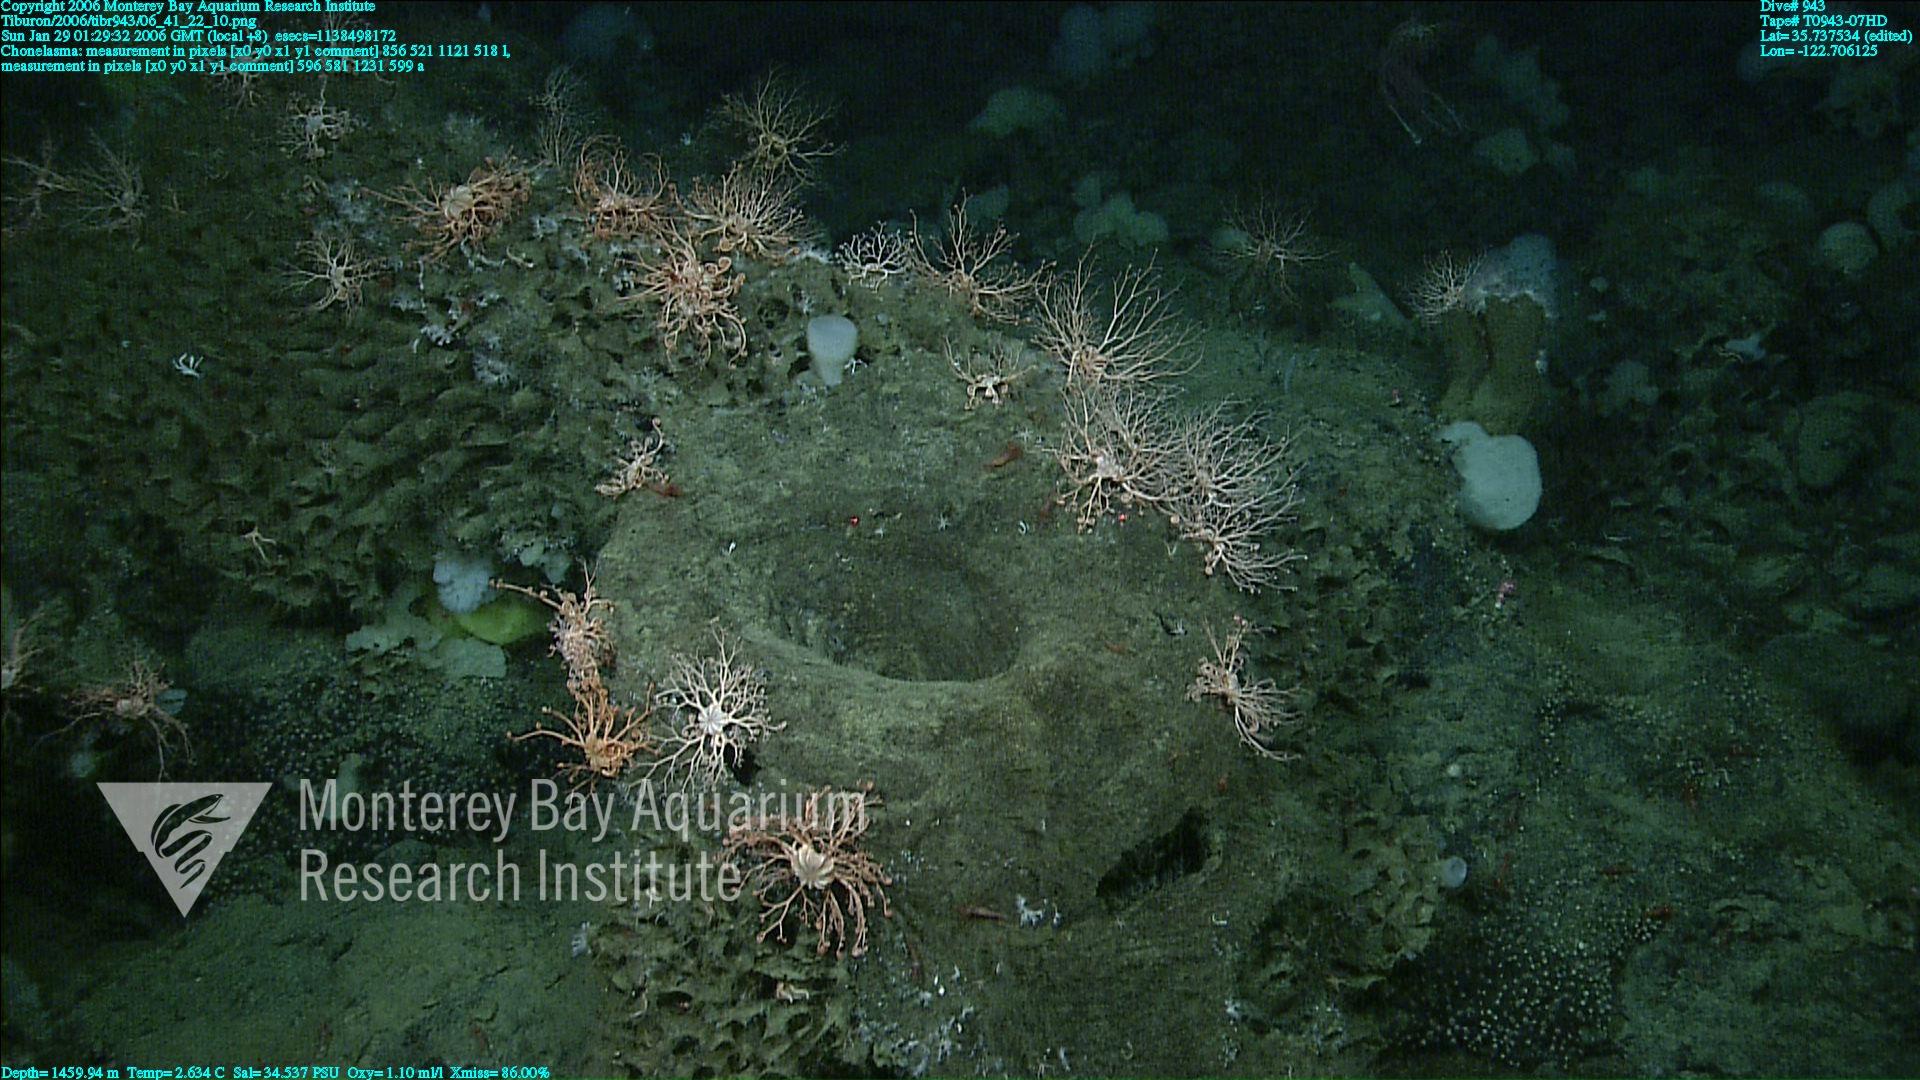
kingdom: Animalia
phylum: Porifera
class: Hexactinellida
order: Sceptrulophora
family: Euretidae
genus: Chonelasma
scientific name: Chonelasma
